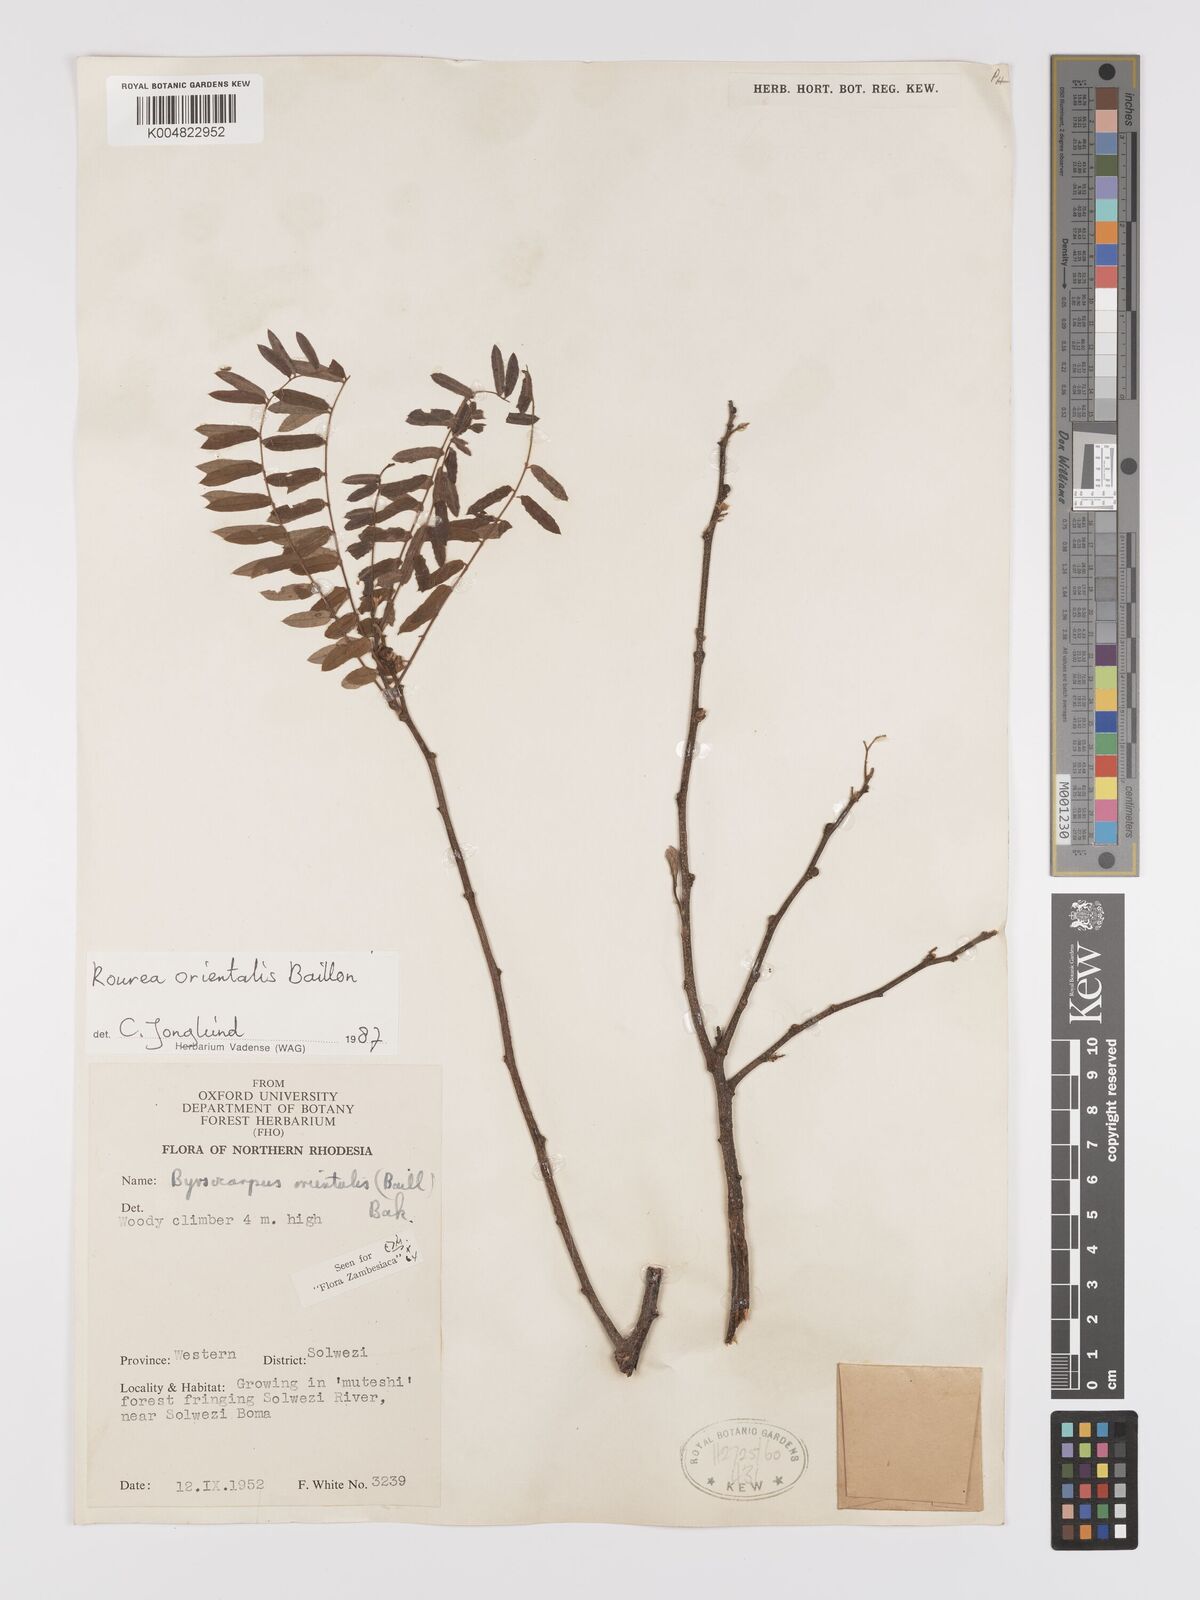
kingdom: Plantae
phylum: Tracheophyta
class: Magnoliopsida
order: Oxalidales
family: Connaraceae
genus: Rourea
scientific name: Rourea orientalis
